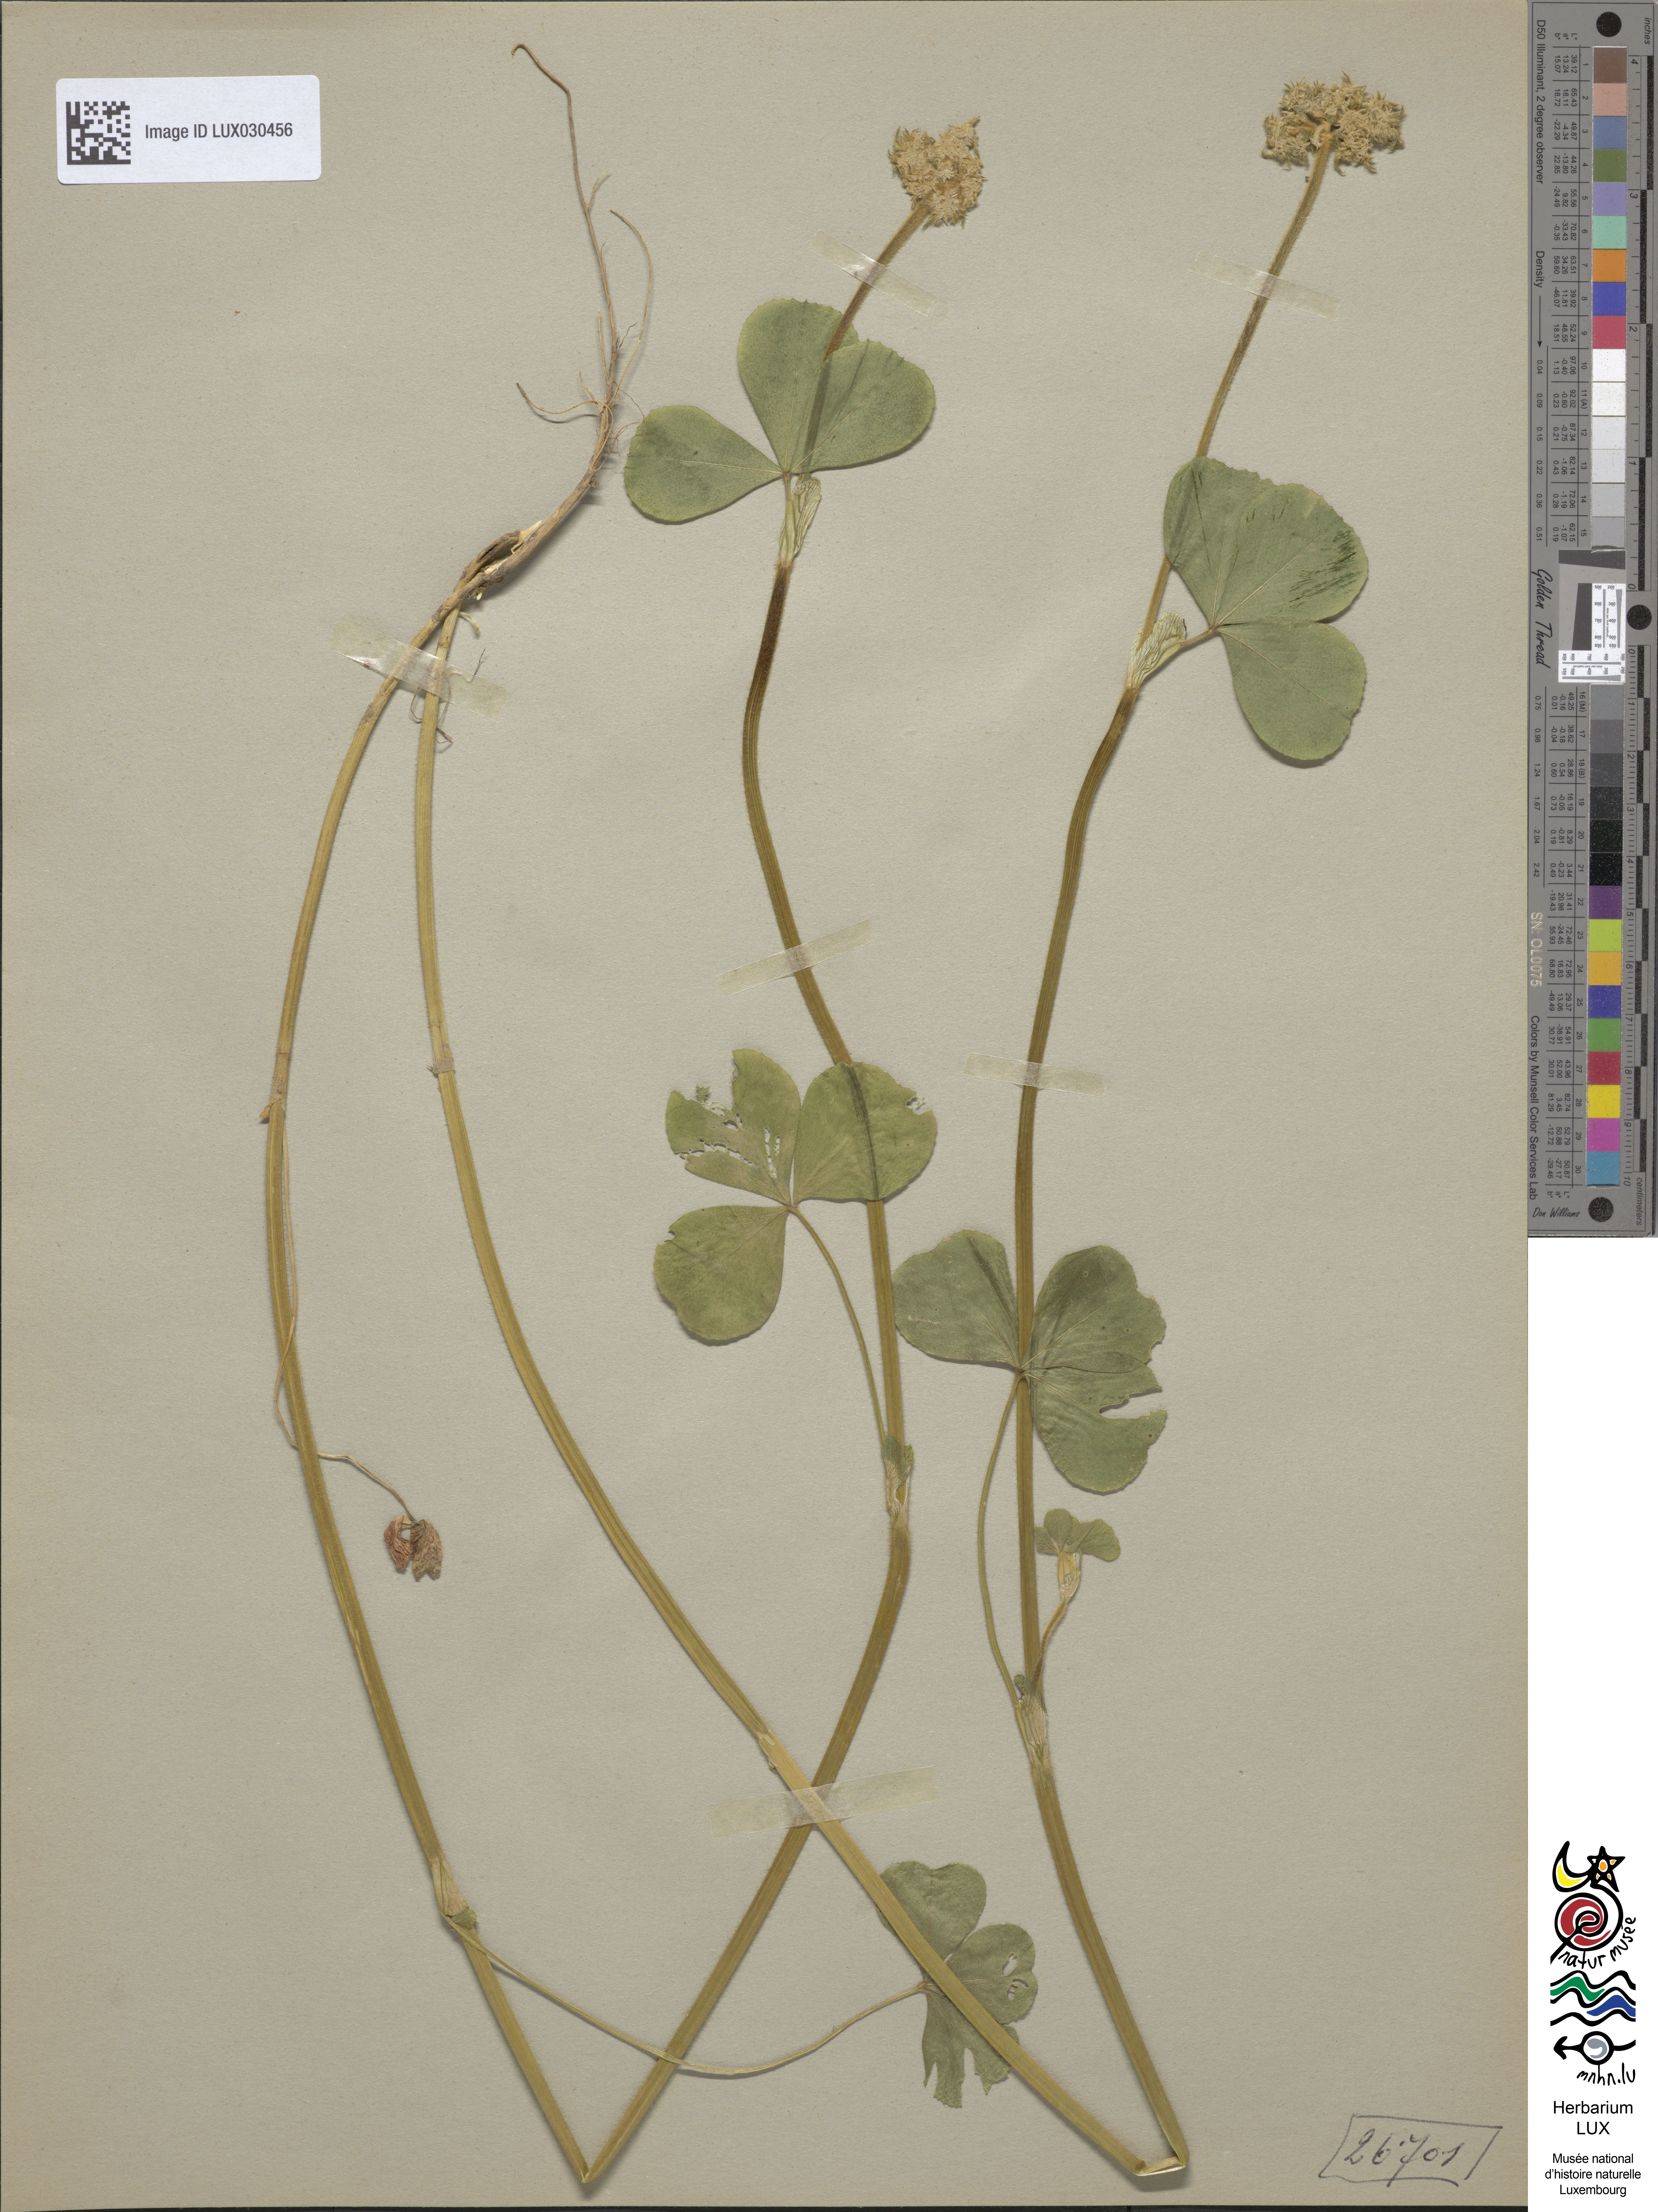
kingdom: Plantae
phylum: Tracheophyta
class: Magnoliopsida
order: Fabales
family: Fabaceae
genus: Trifolium
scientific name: Trifolium incarnatum
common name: Crimson clover
